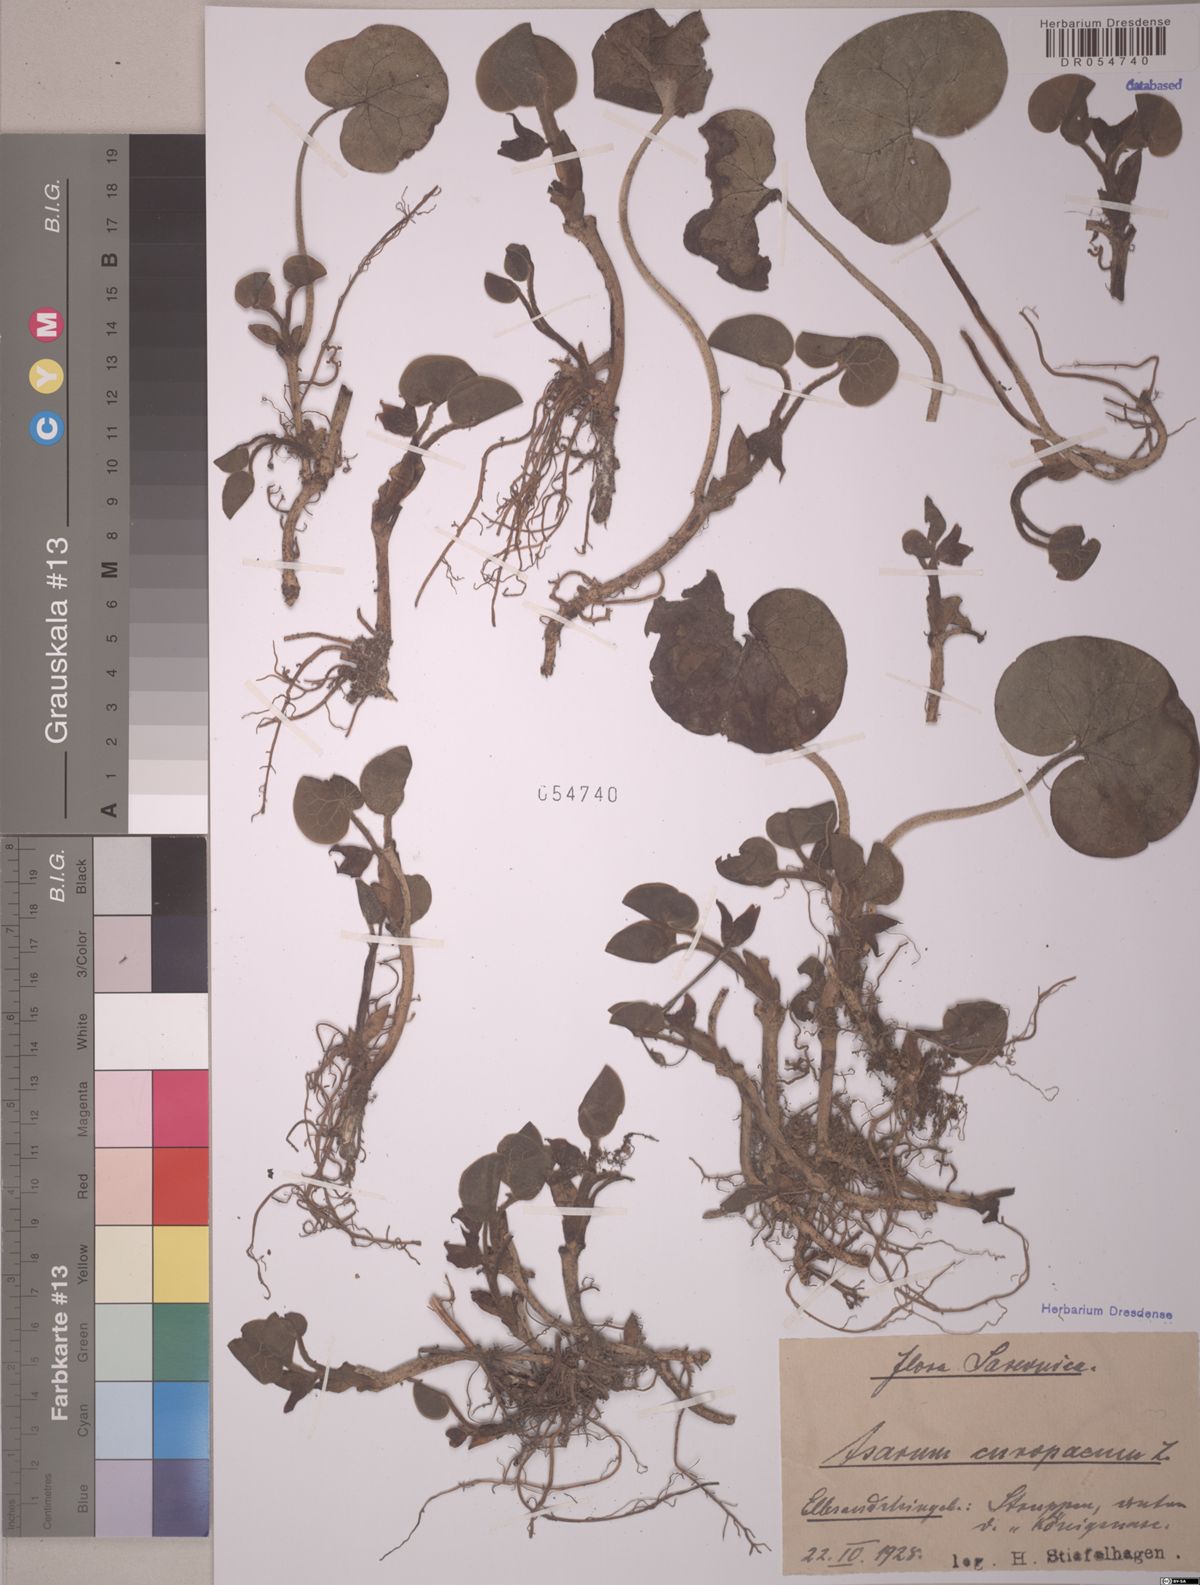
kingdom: Plantae
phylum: Tracheophyta
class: Magnoliopsida
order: Piperales
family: Aristolochiaceae
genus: Asarum
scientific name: Asarum europaeum
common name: Asarabacca
